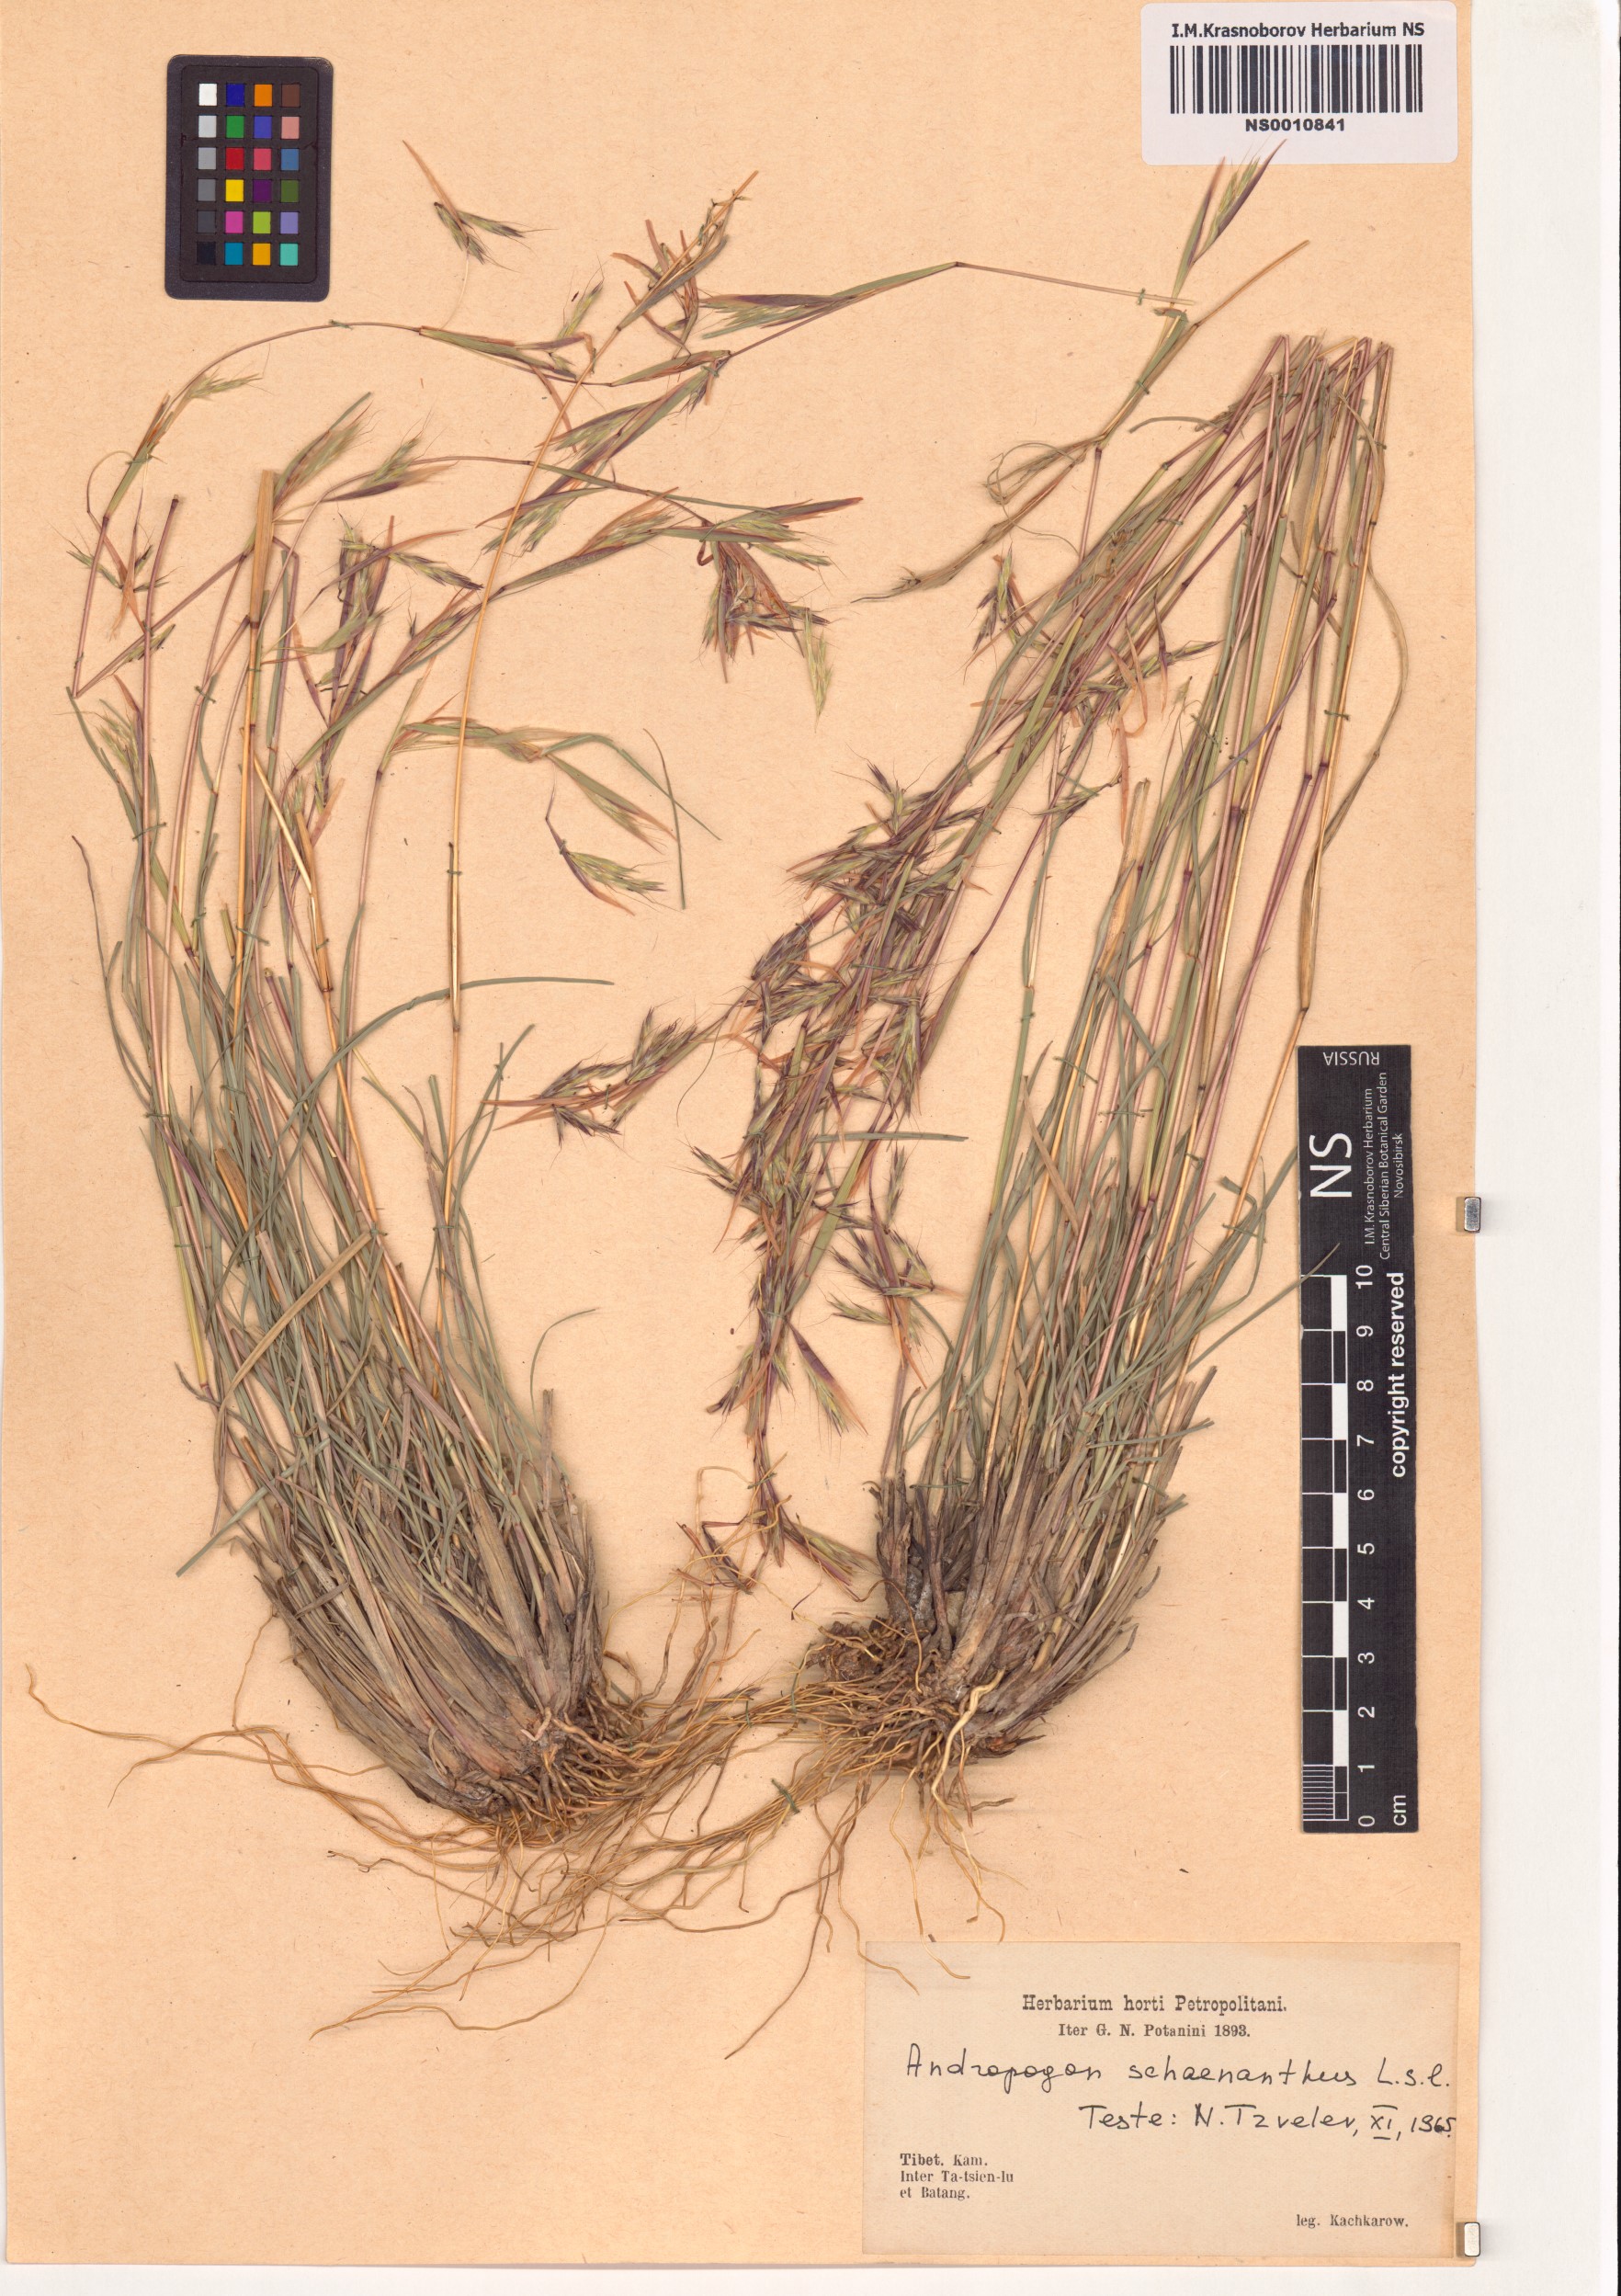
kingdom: Plantae
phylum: Tracheophyta
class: Liliopsida
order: Poales
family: Poaceae
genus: Cymbopogon
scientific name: Cymbopogon schoenanthus
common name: Geranium grass
